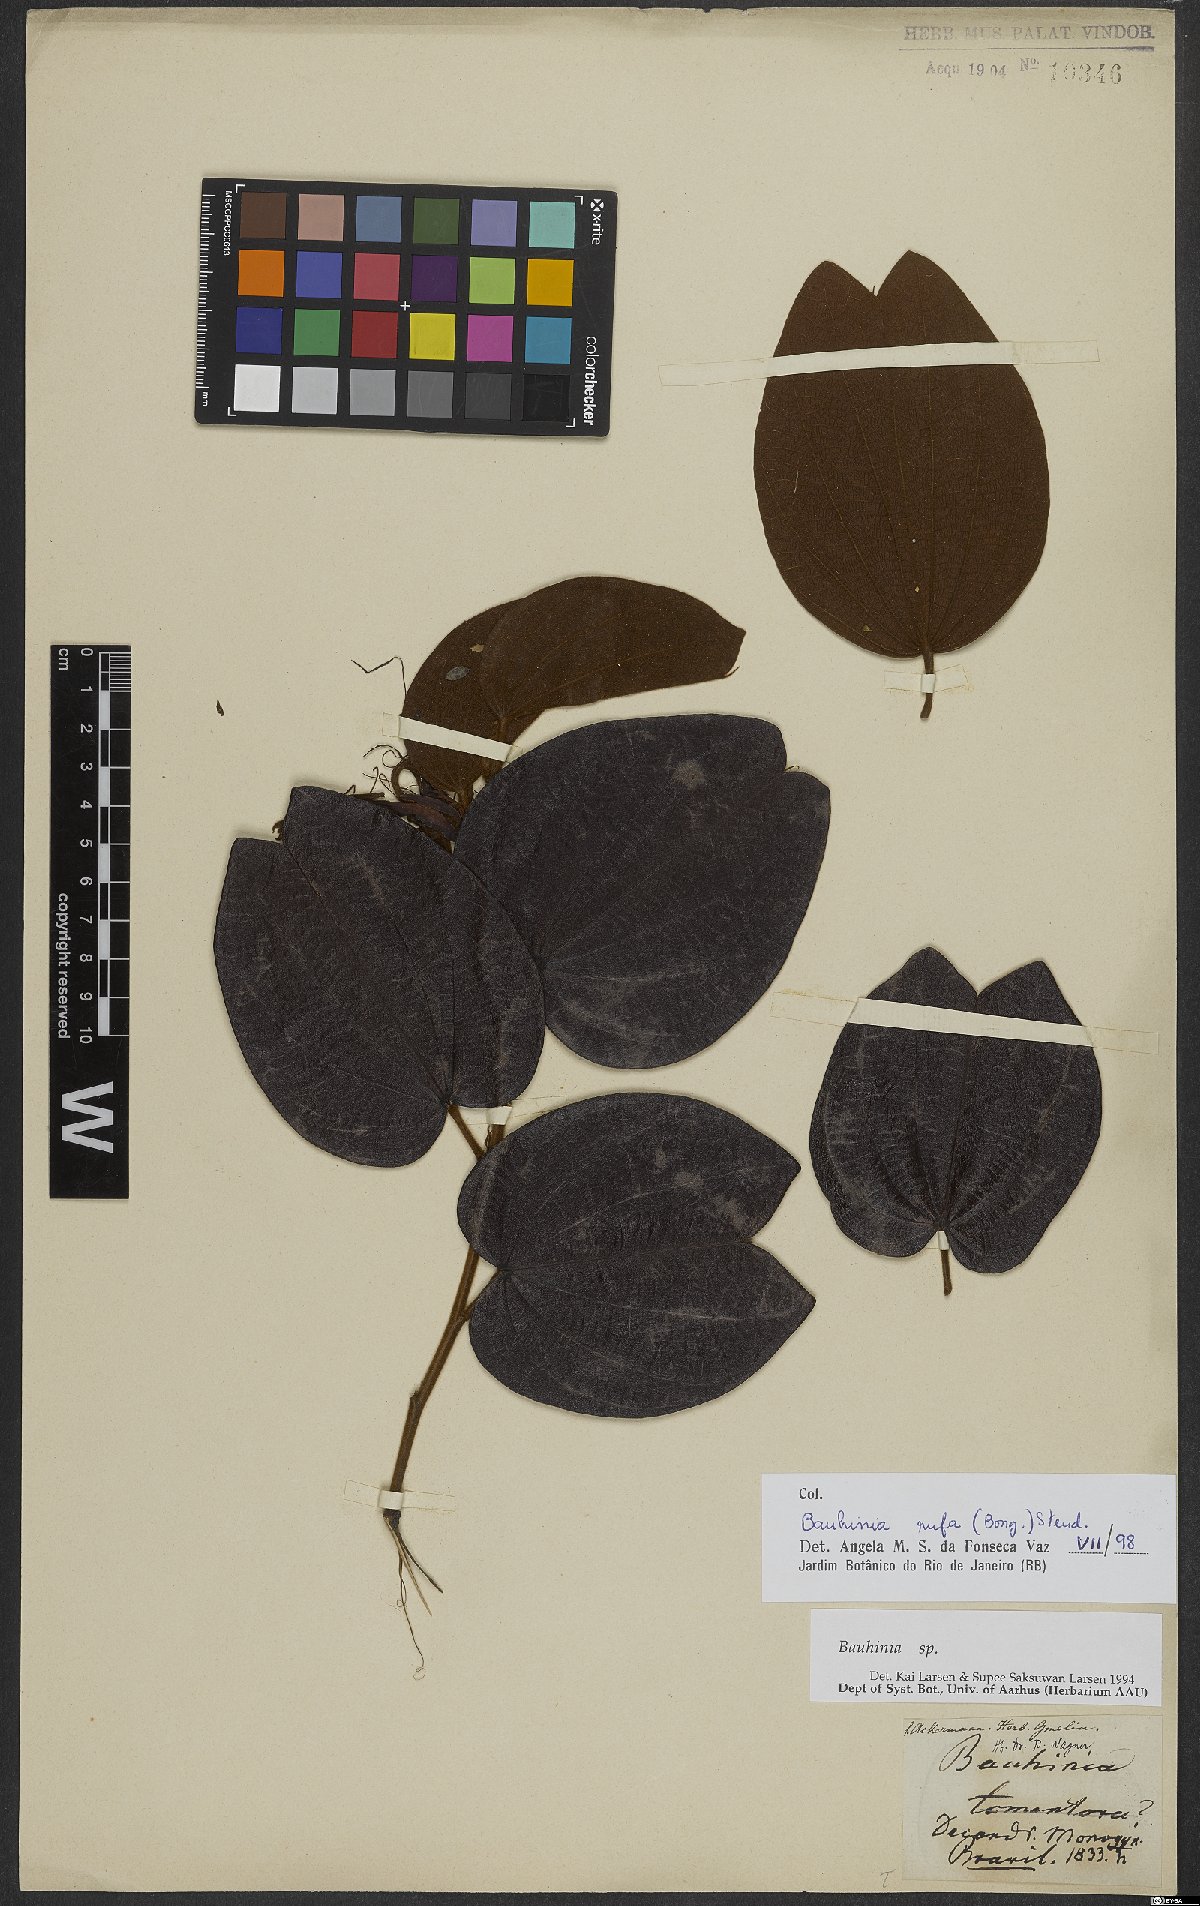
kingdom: Plantae
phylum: Tracheophyta
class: Magnoliopsida
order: Fabales
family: Fabaceae
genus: Bauhinia
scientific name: Bauhinia rufa
